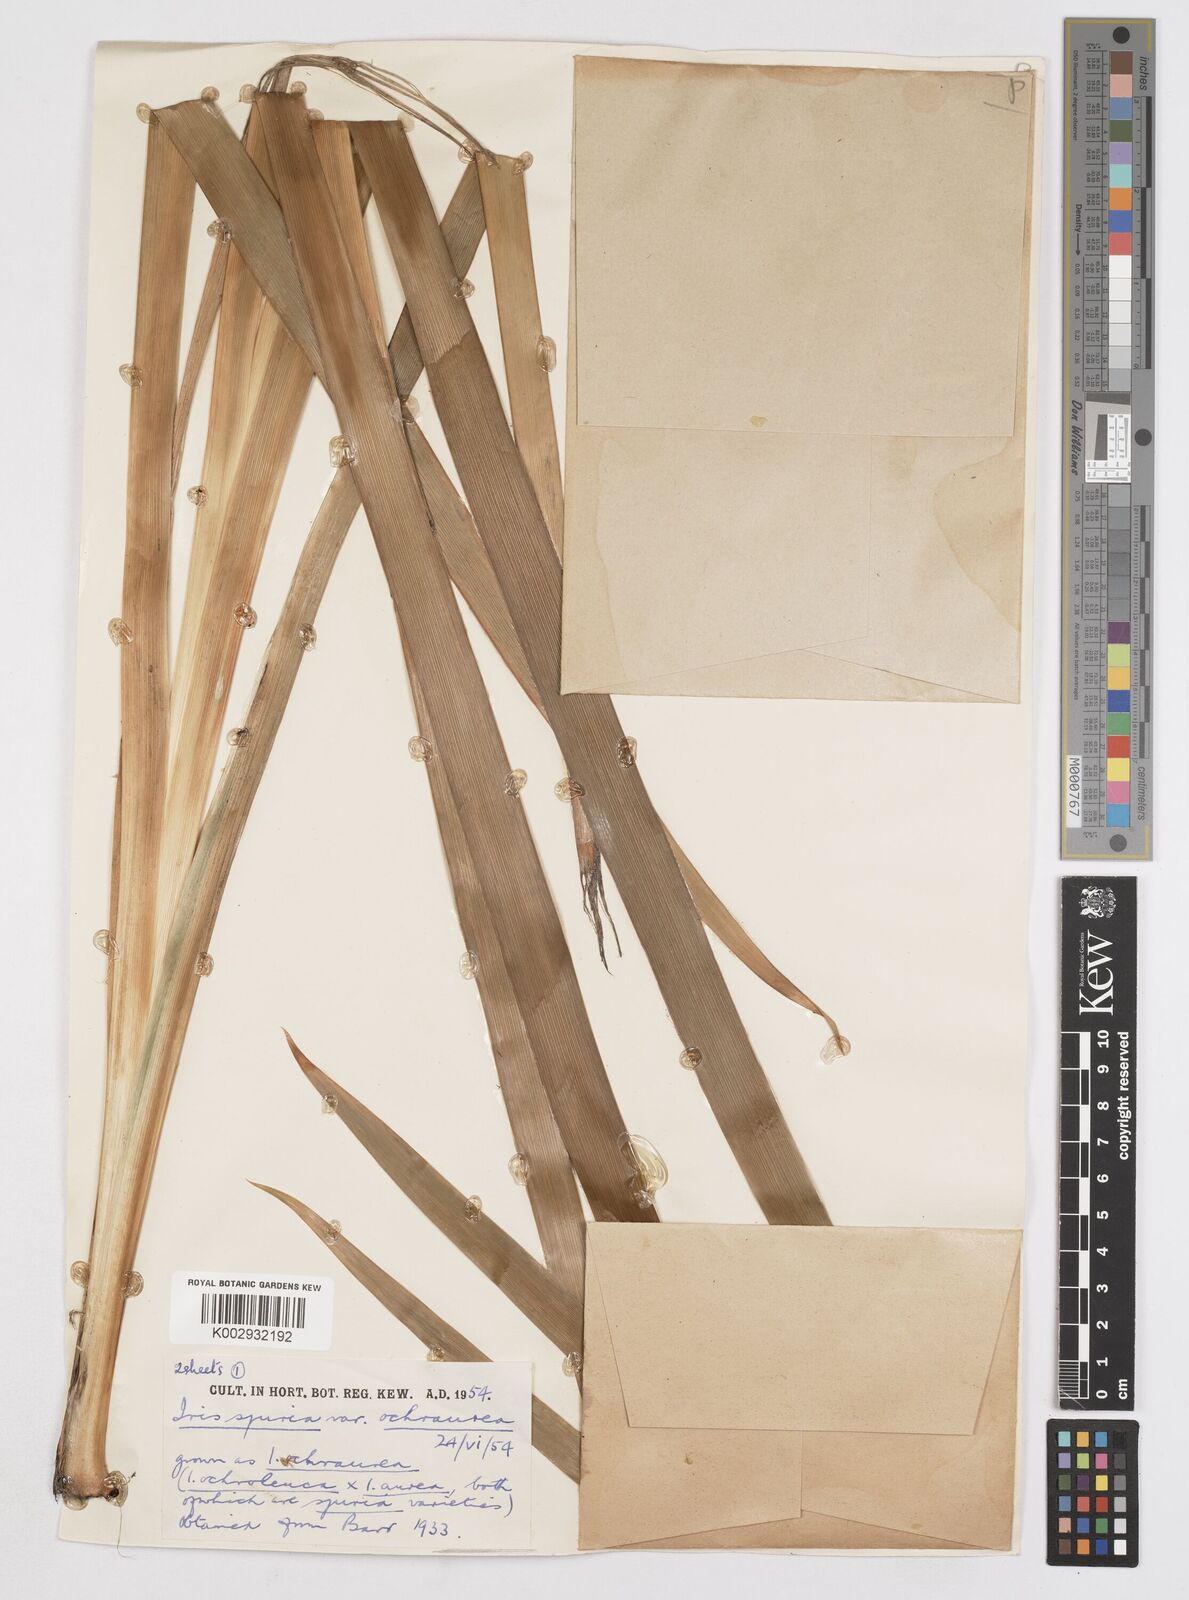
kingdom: Plantae
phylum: Tracheophyta
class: Liliopsida
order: Asparagales
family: Iridaceae
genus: Iris
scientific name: Iris
